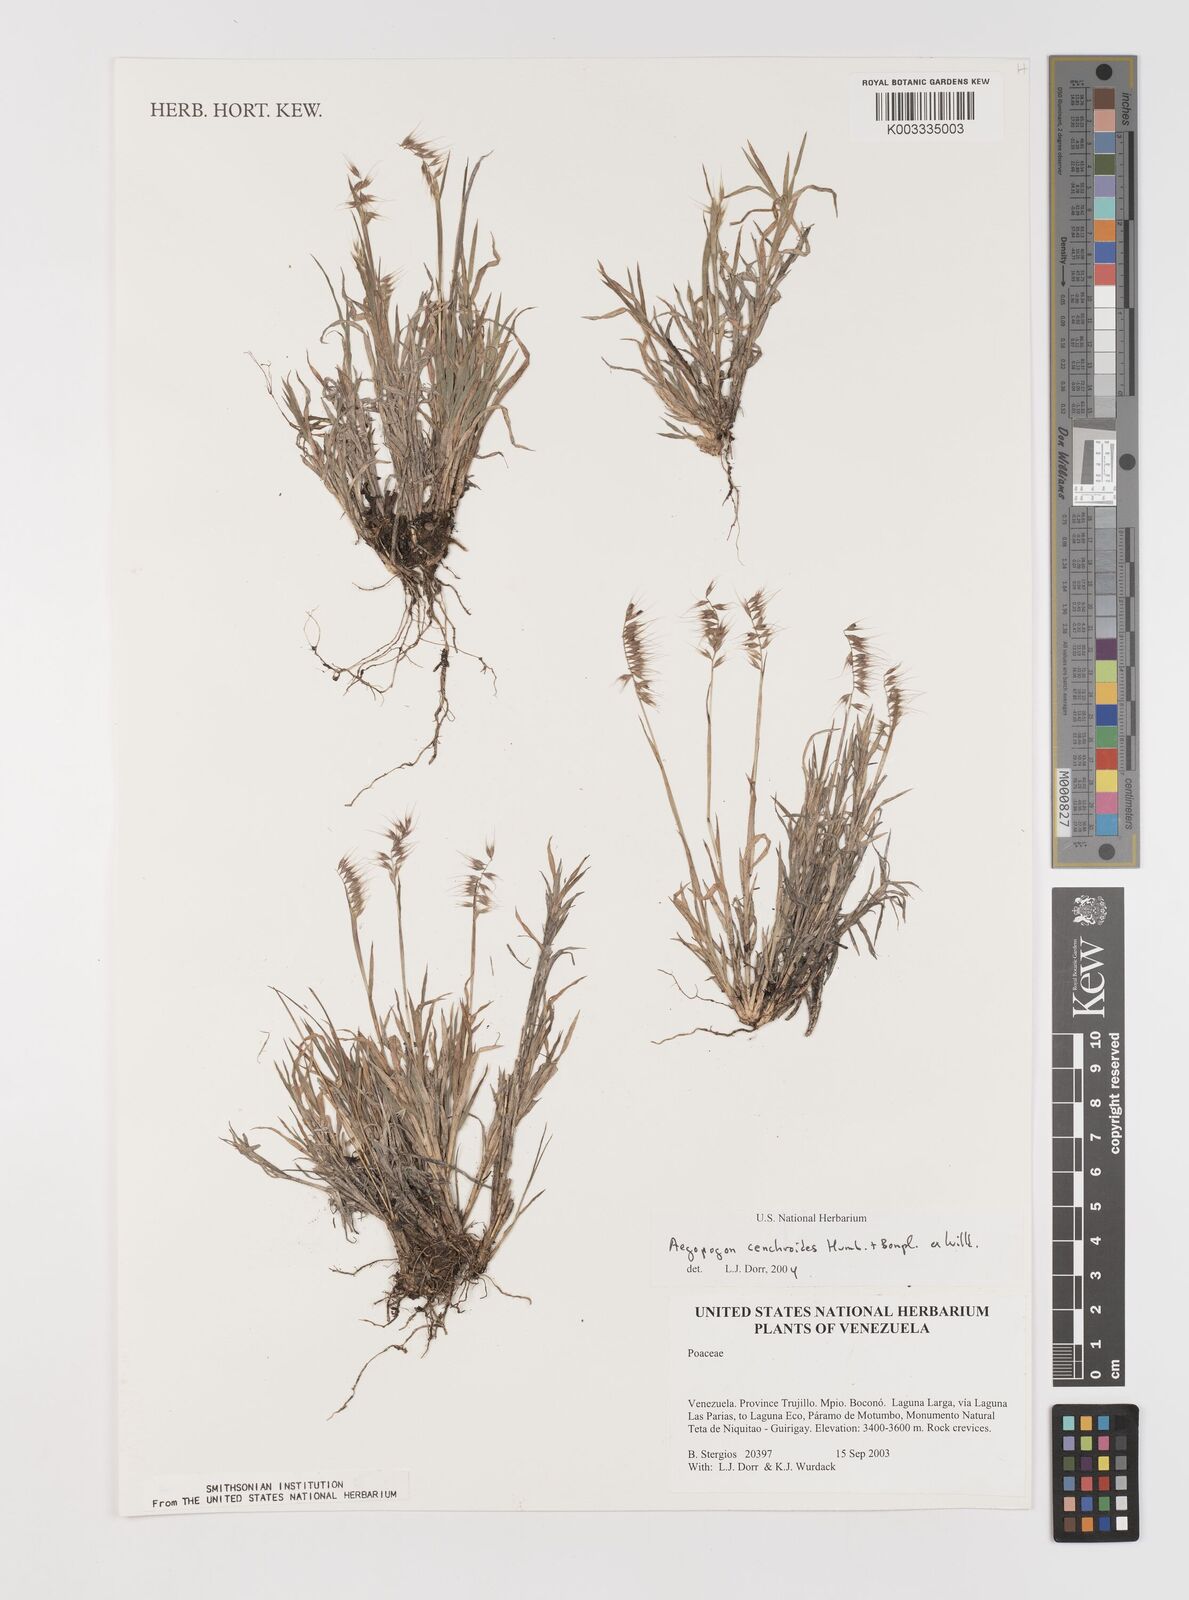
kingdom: Plantae
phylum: Tracheophyta
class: Liliopsida
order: Poales
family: Poaceae
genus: Muhlenbergia
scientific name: Muhlenbergia cenchroides
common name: Relaxgrass
